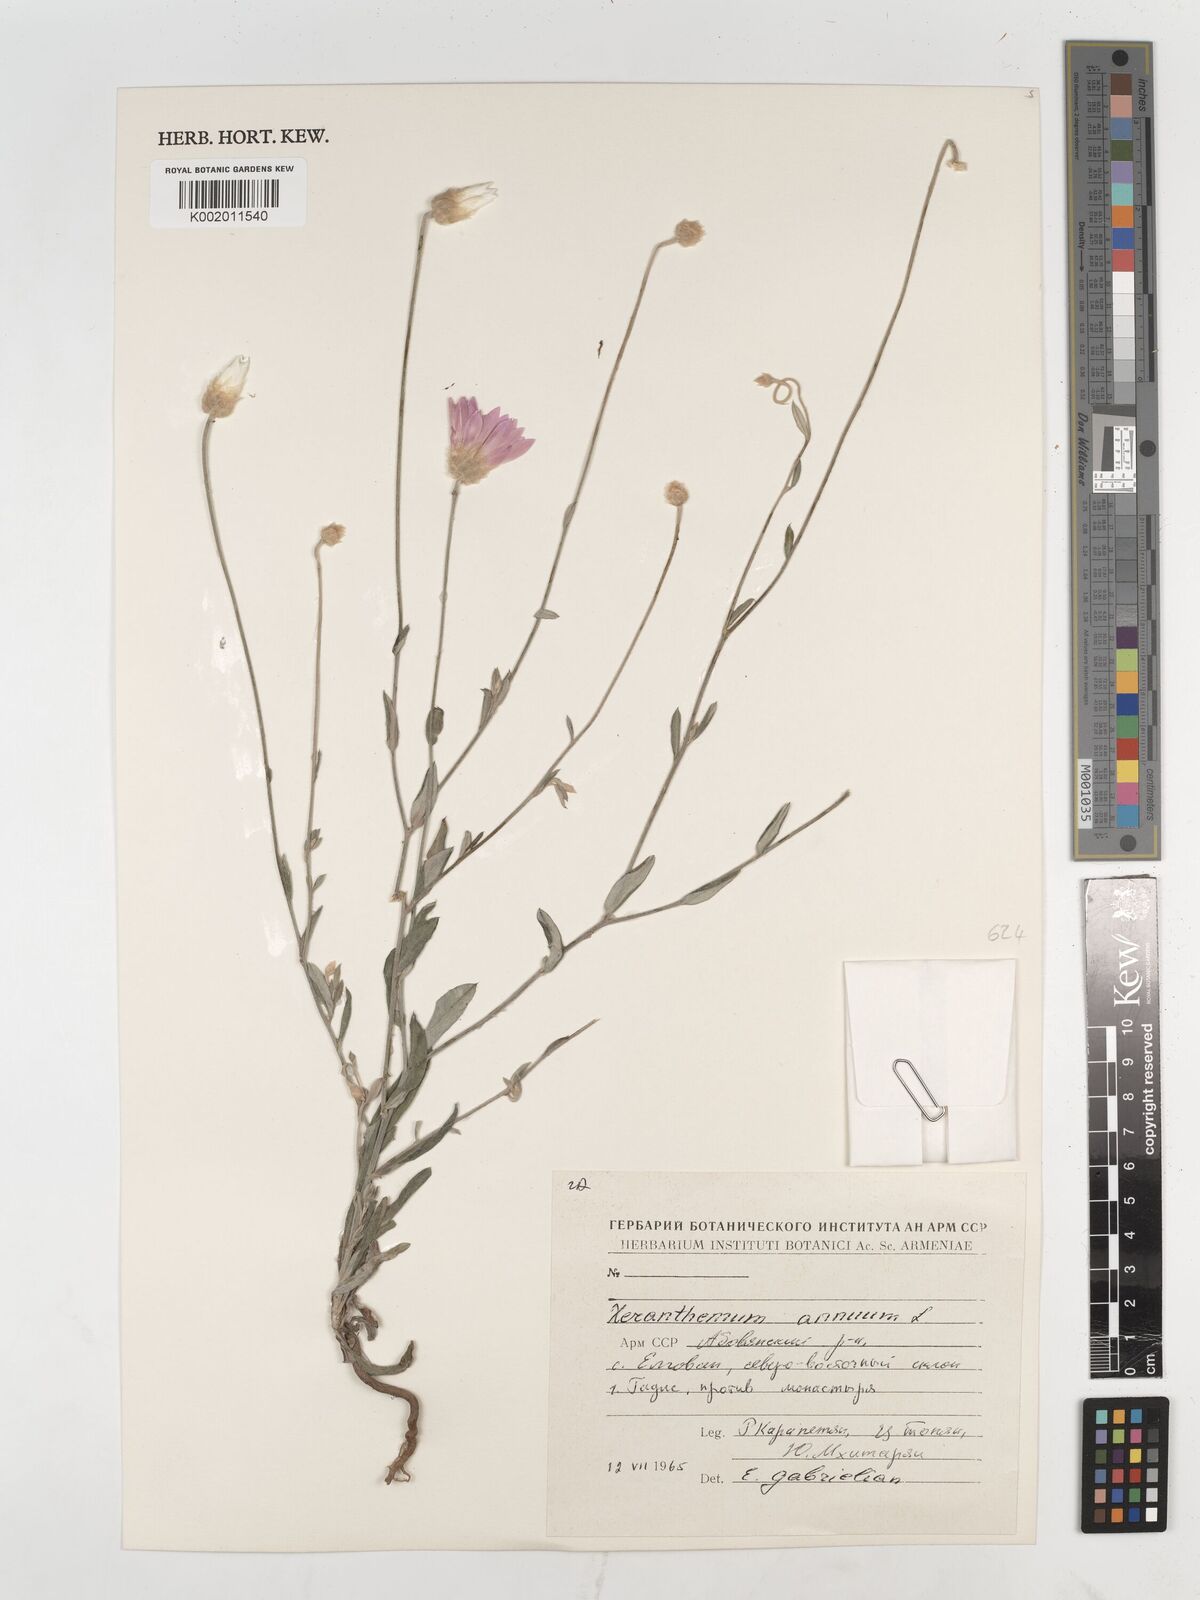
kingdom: Plantae
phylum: Tracheophyta
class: Magnoliopsida
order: Asterales
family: Asteraceae
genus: Xeranthemum
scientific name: Xeranthemum annuum
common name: Immortelle
